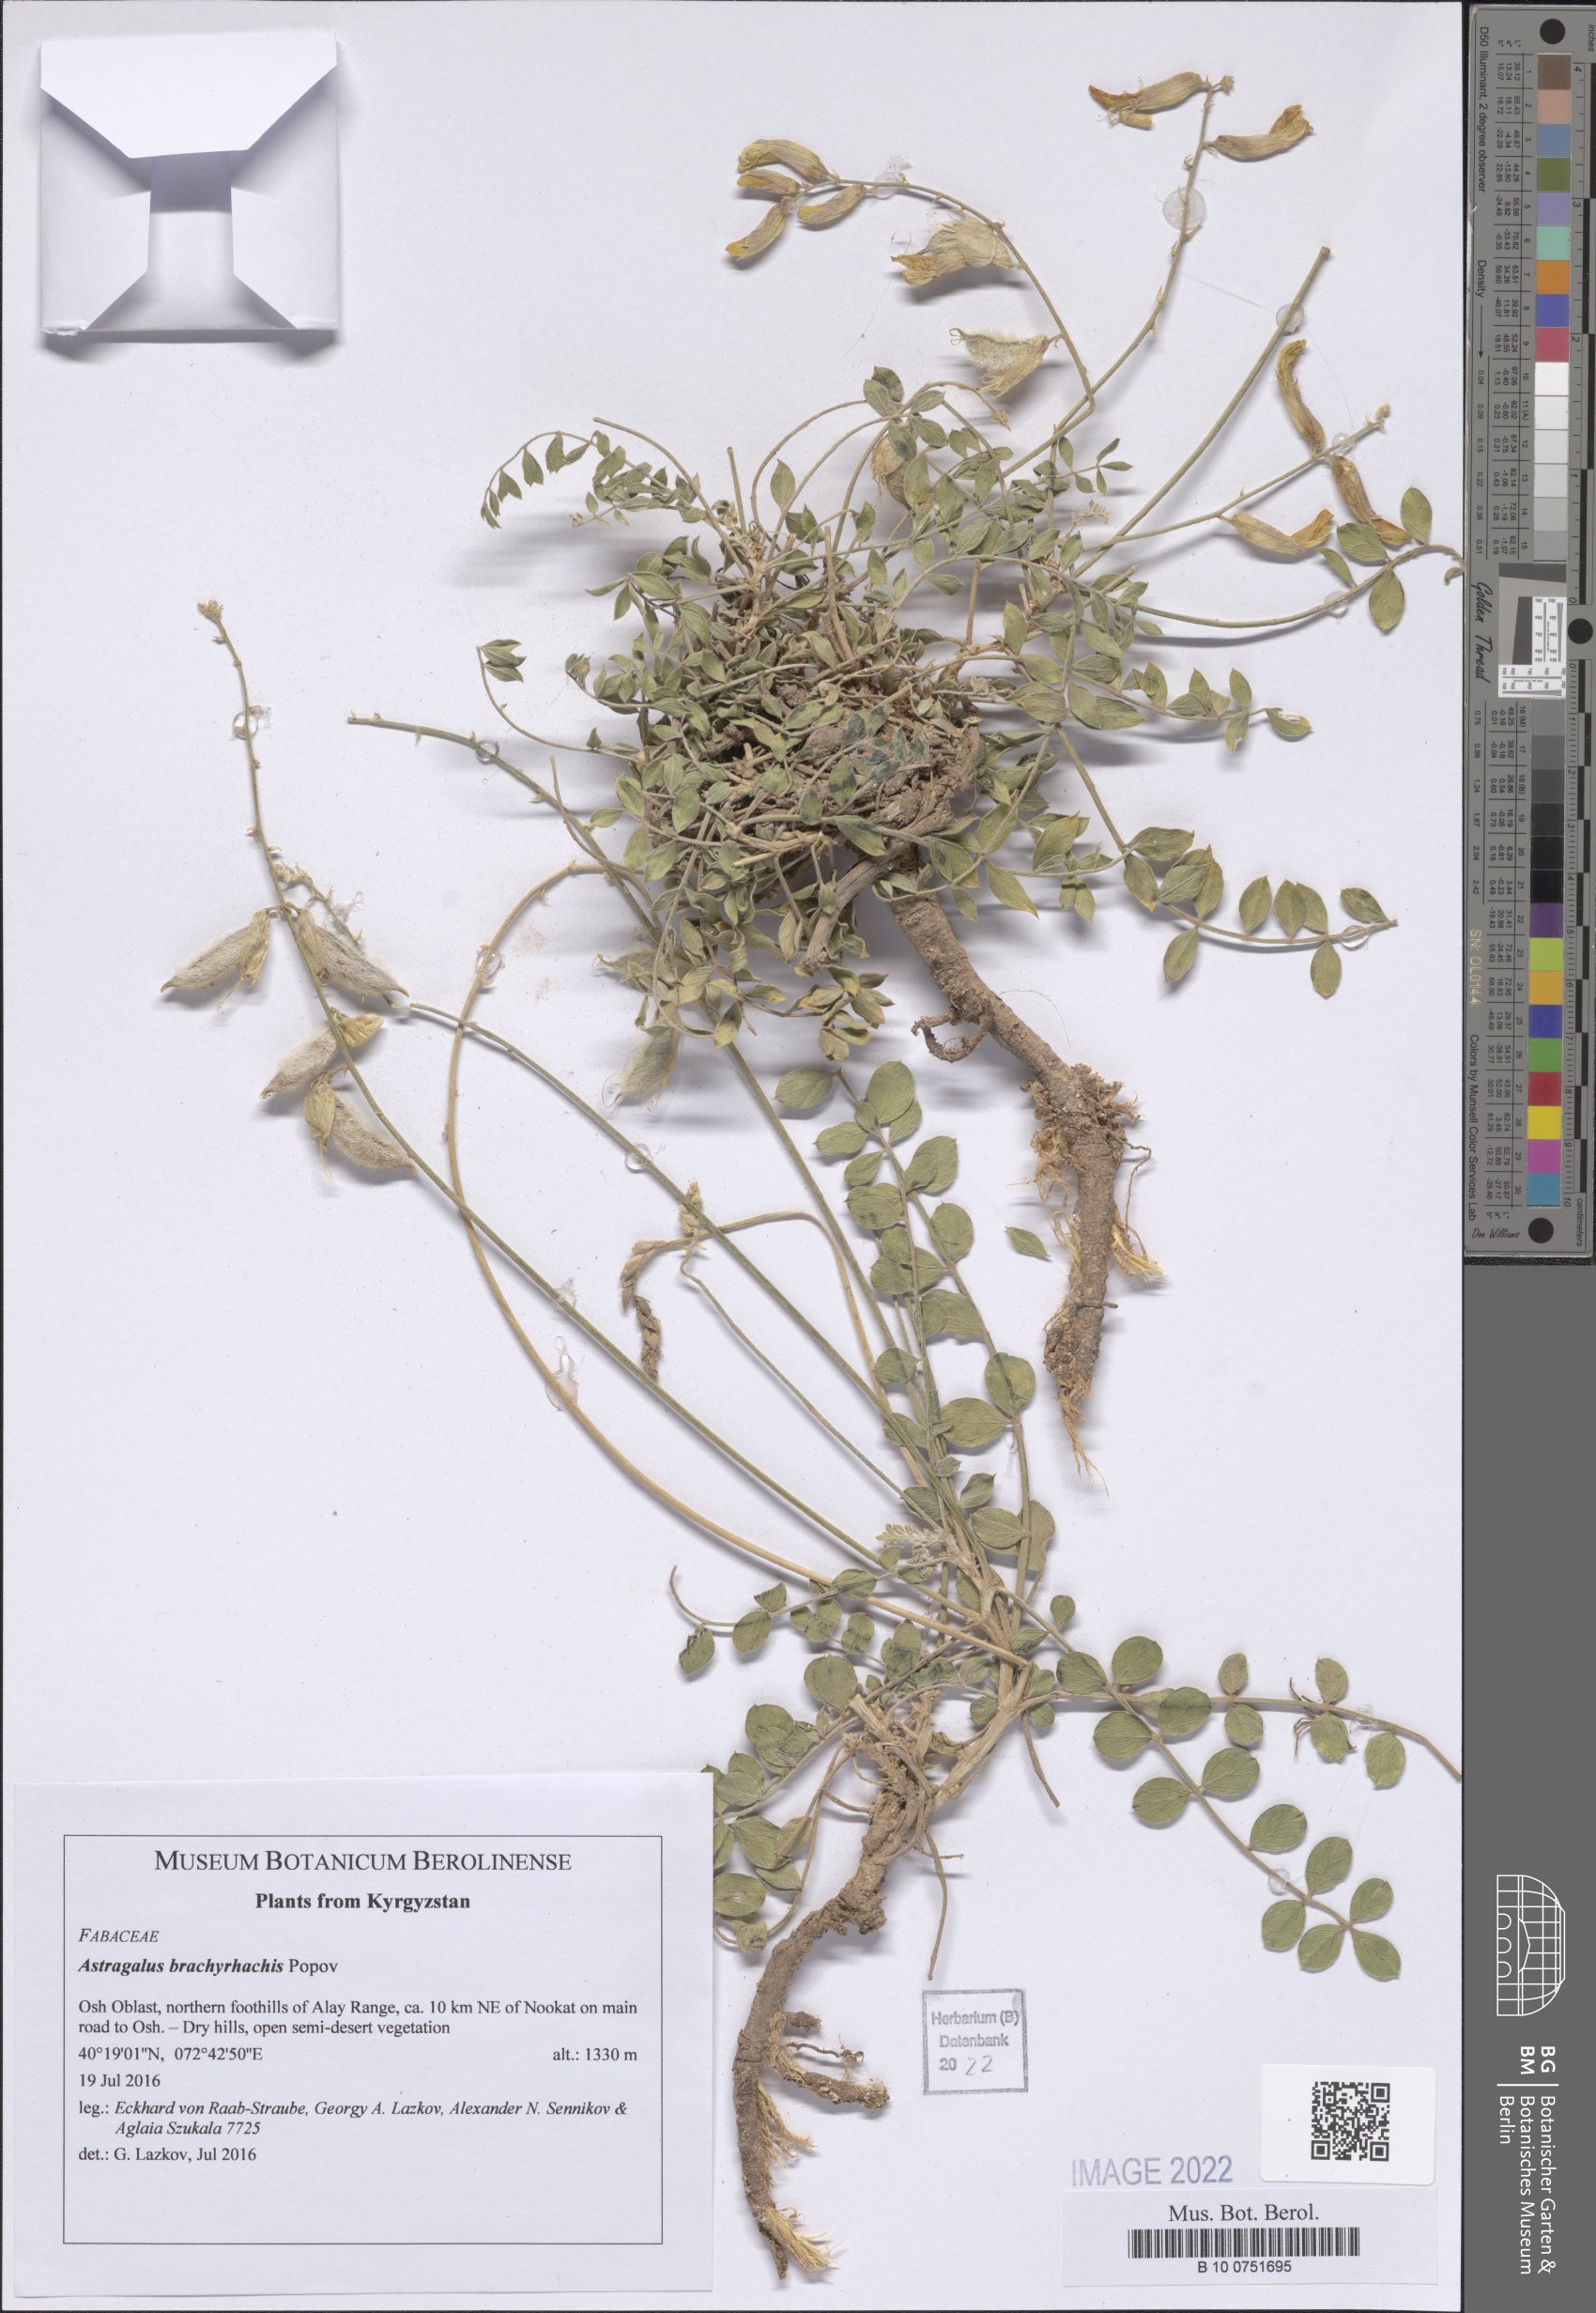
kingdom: Plantae
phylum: Tracheophyta
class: Magnoliopsida
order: Fabales
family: Fabaceae
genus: Astragalus
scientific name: Astragalus pachyrrhizus
